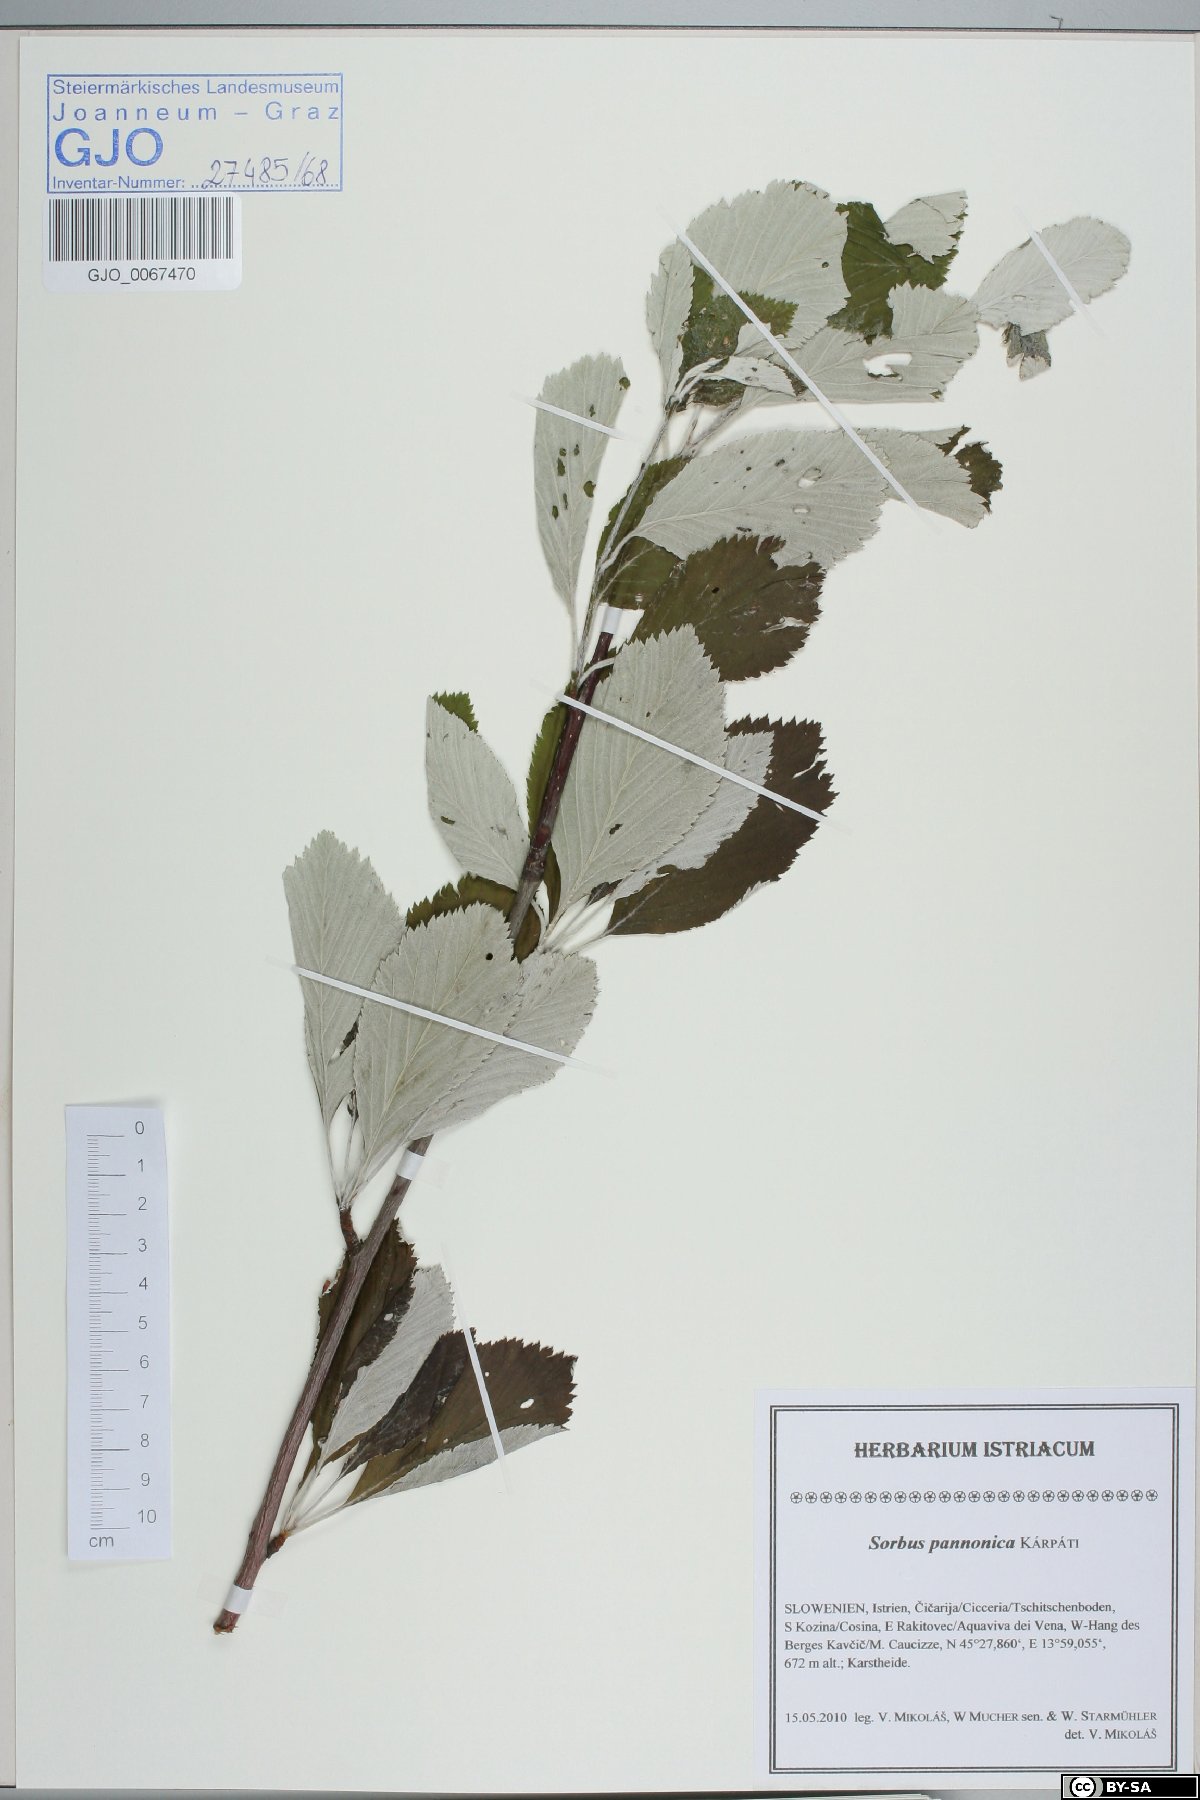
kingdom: Plantae
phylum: Tracheophyta
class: Magnoliopsida
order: Rosales
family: Rosaceae
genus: Aria
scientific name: Aria pannonica
